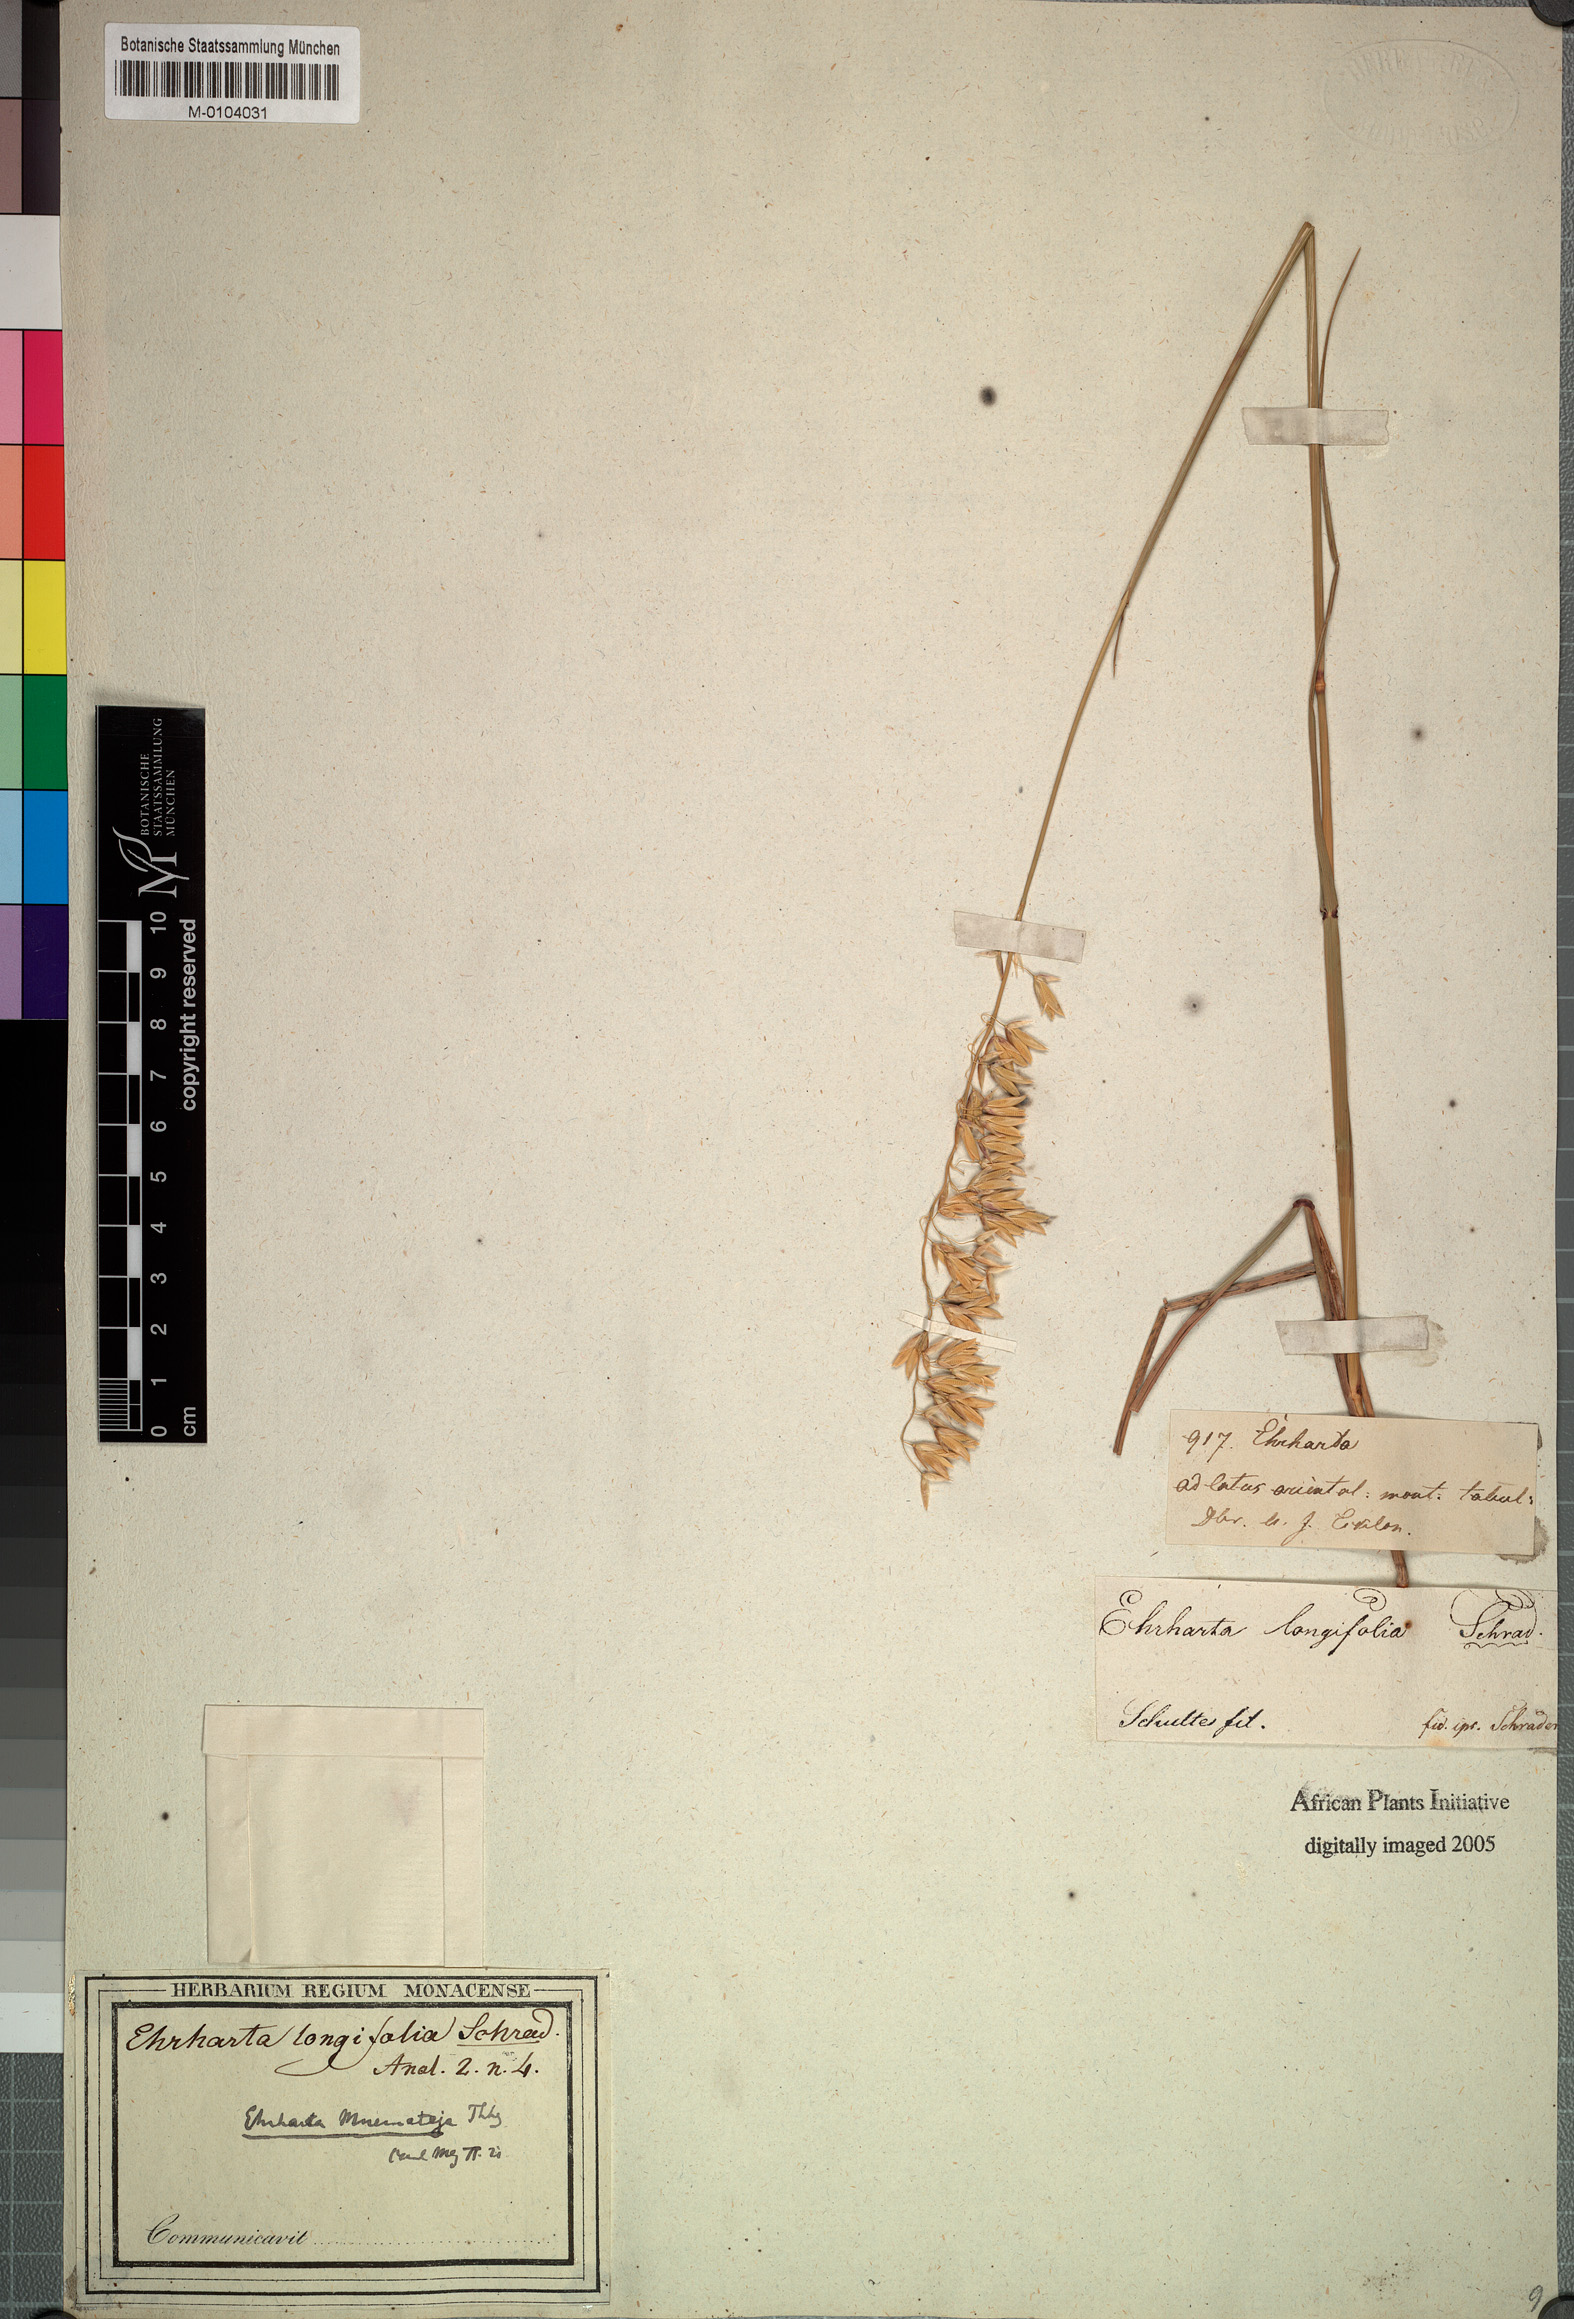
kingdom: Plantae
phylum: Tracheophyta
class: Liliopsida
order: Poales
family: Poaceae
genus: Ehrharta
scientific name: Ehrharta longifolia
